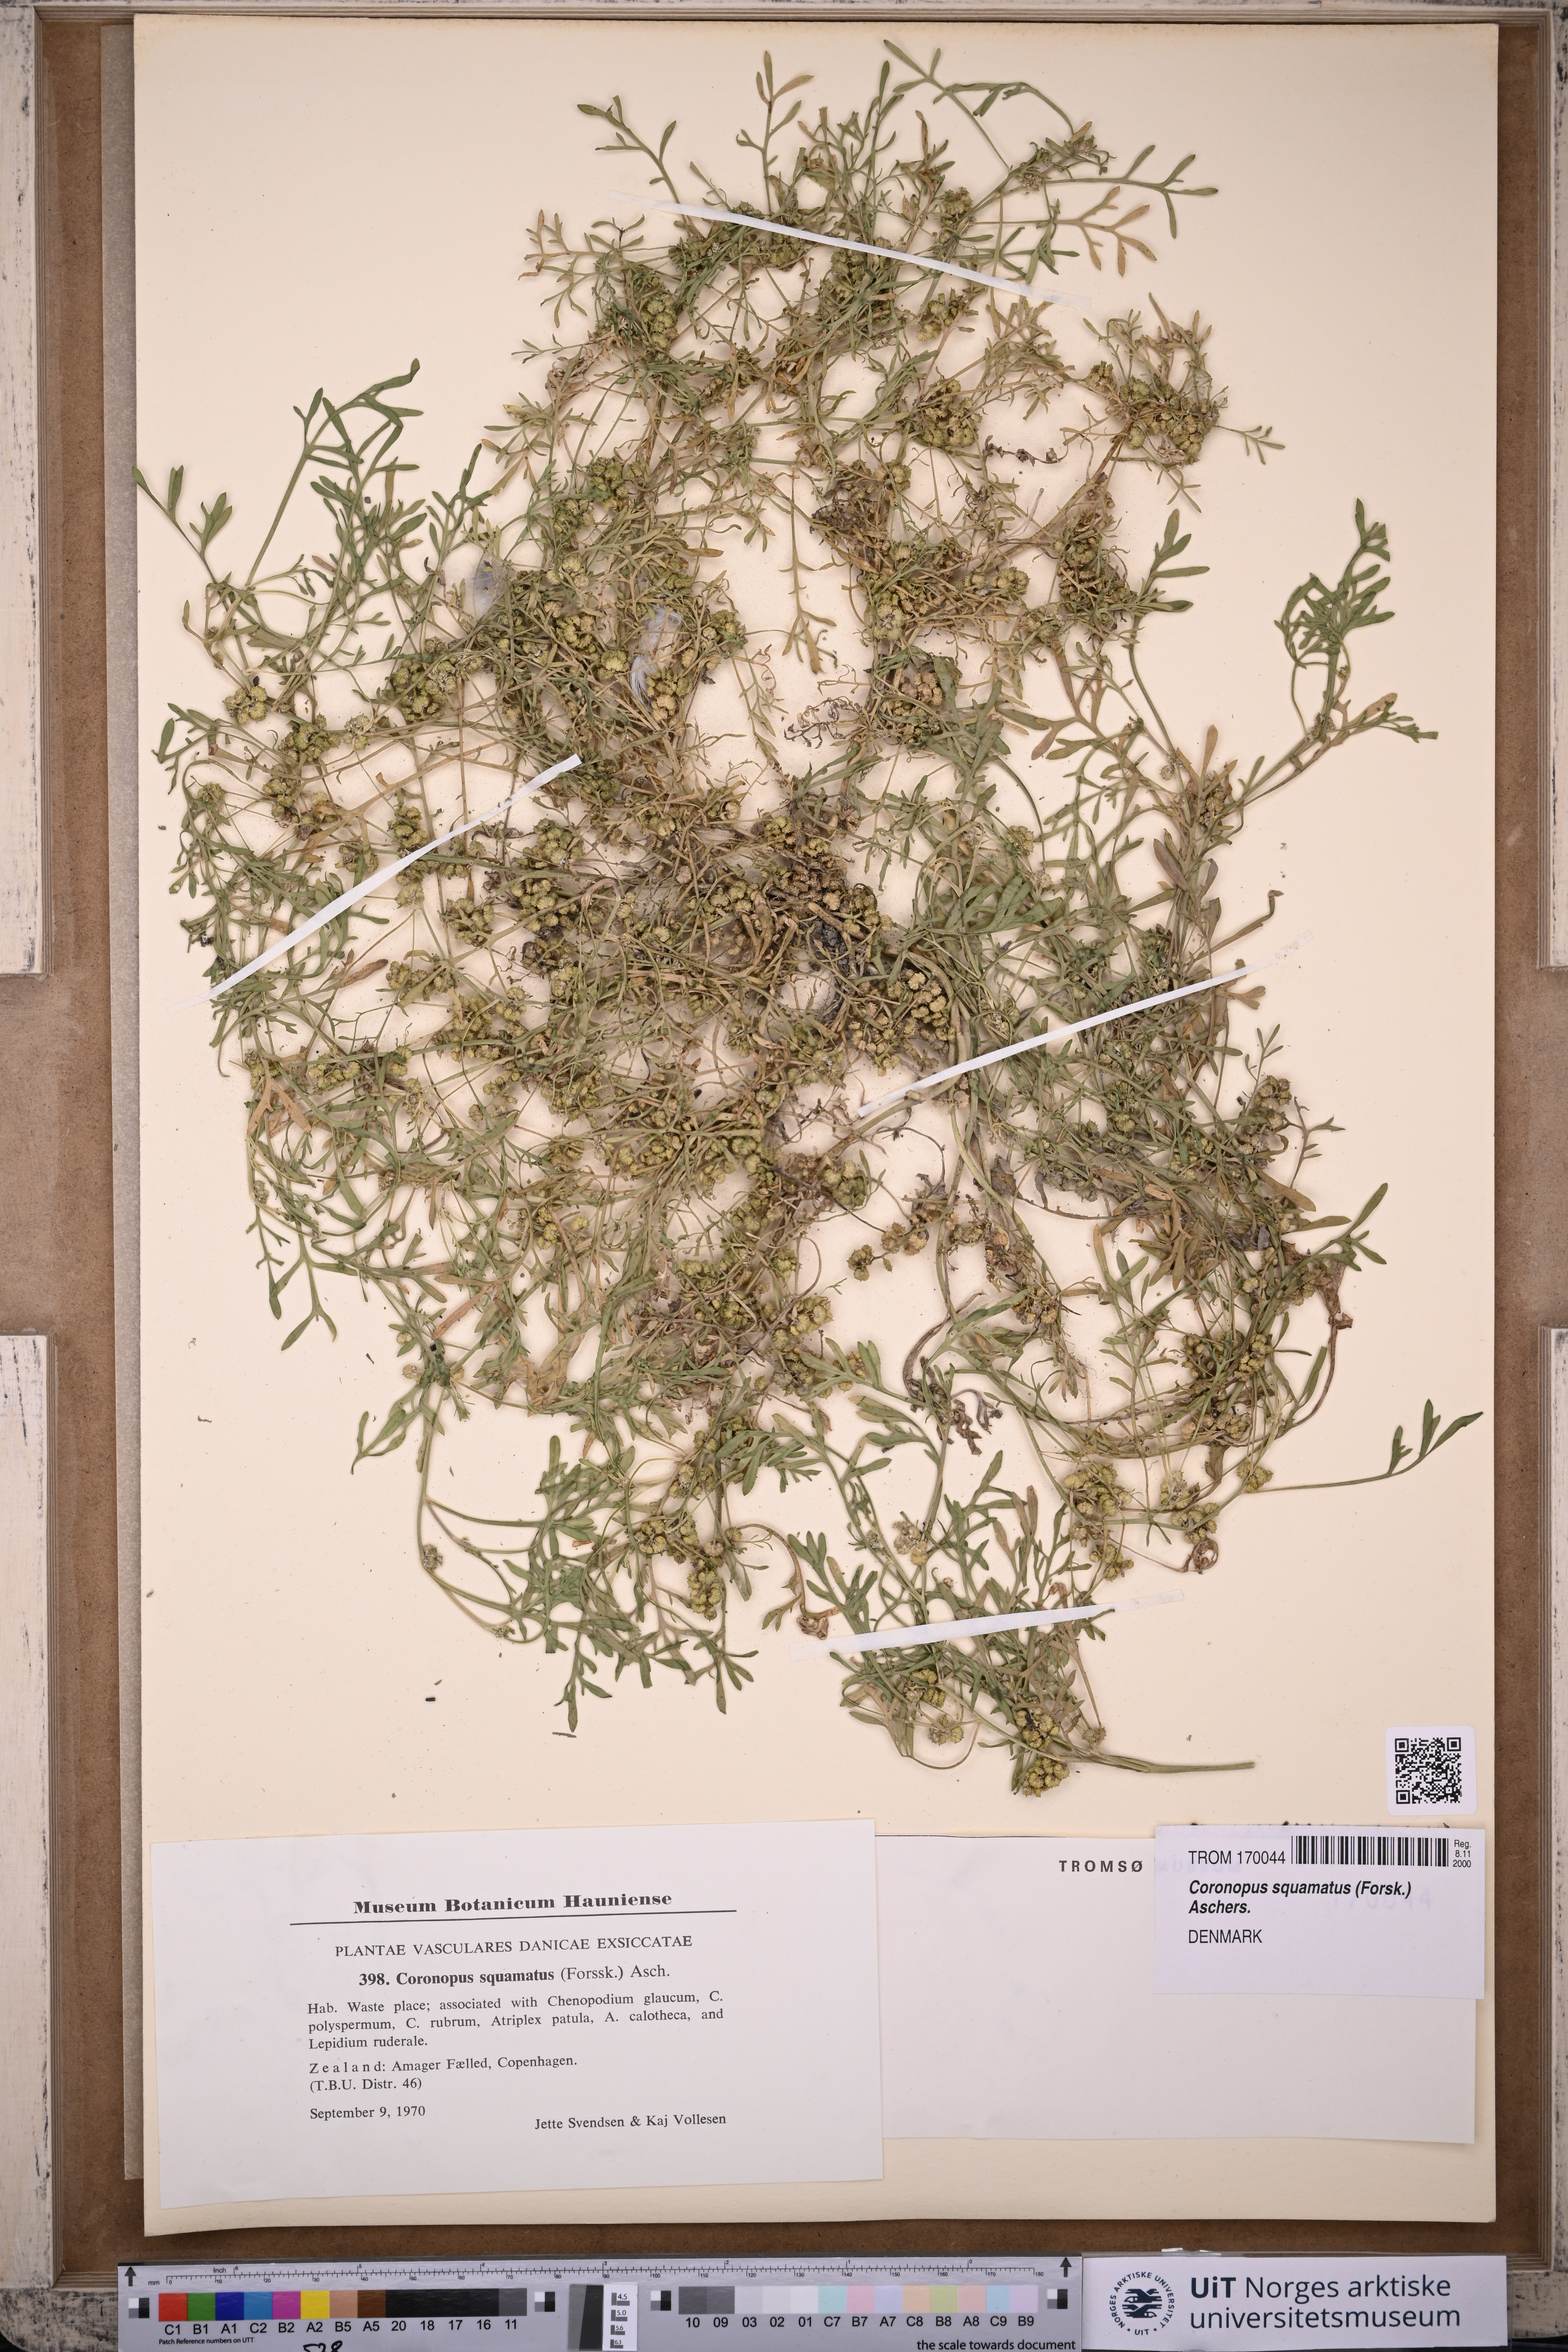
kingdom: Plantae
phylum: Tracheophyta
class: Magnoliopsida
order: Brassicales
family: Brassicaceae
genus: Lepidium
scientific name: Lepidium coronopus
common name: Greater swinecress
